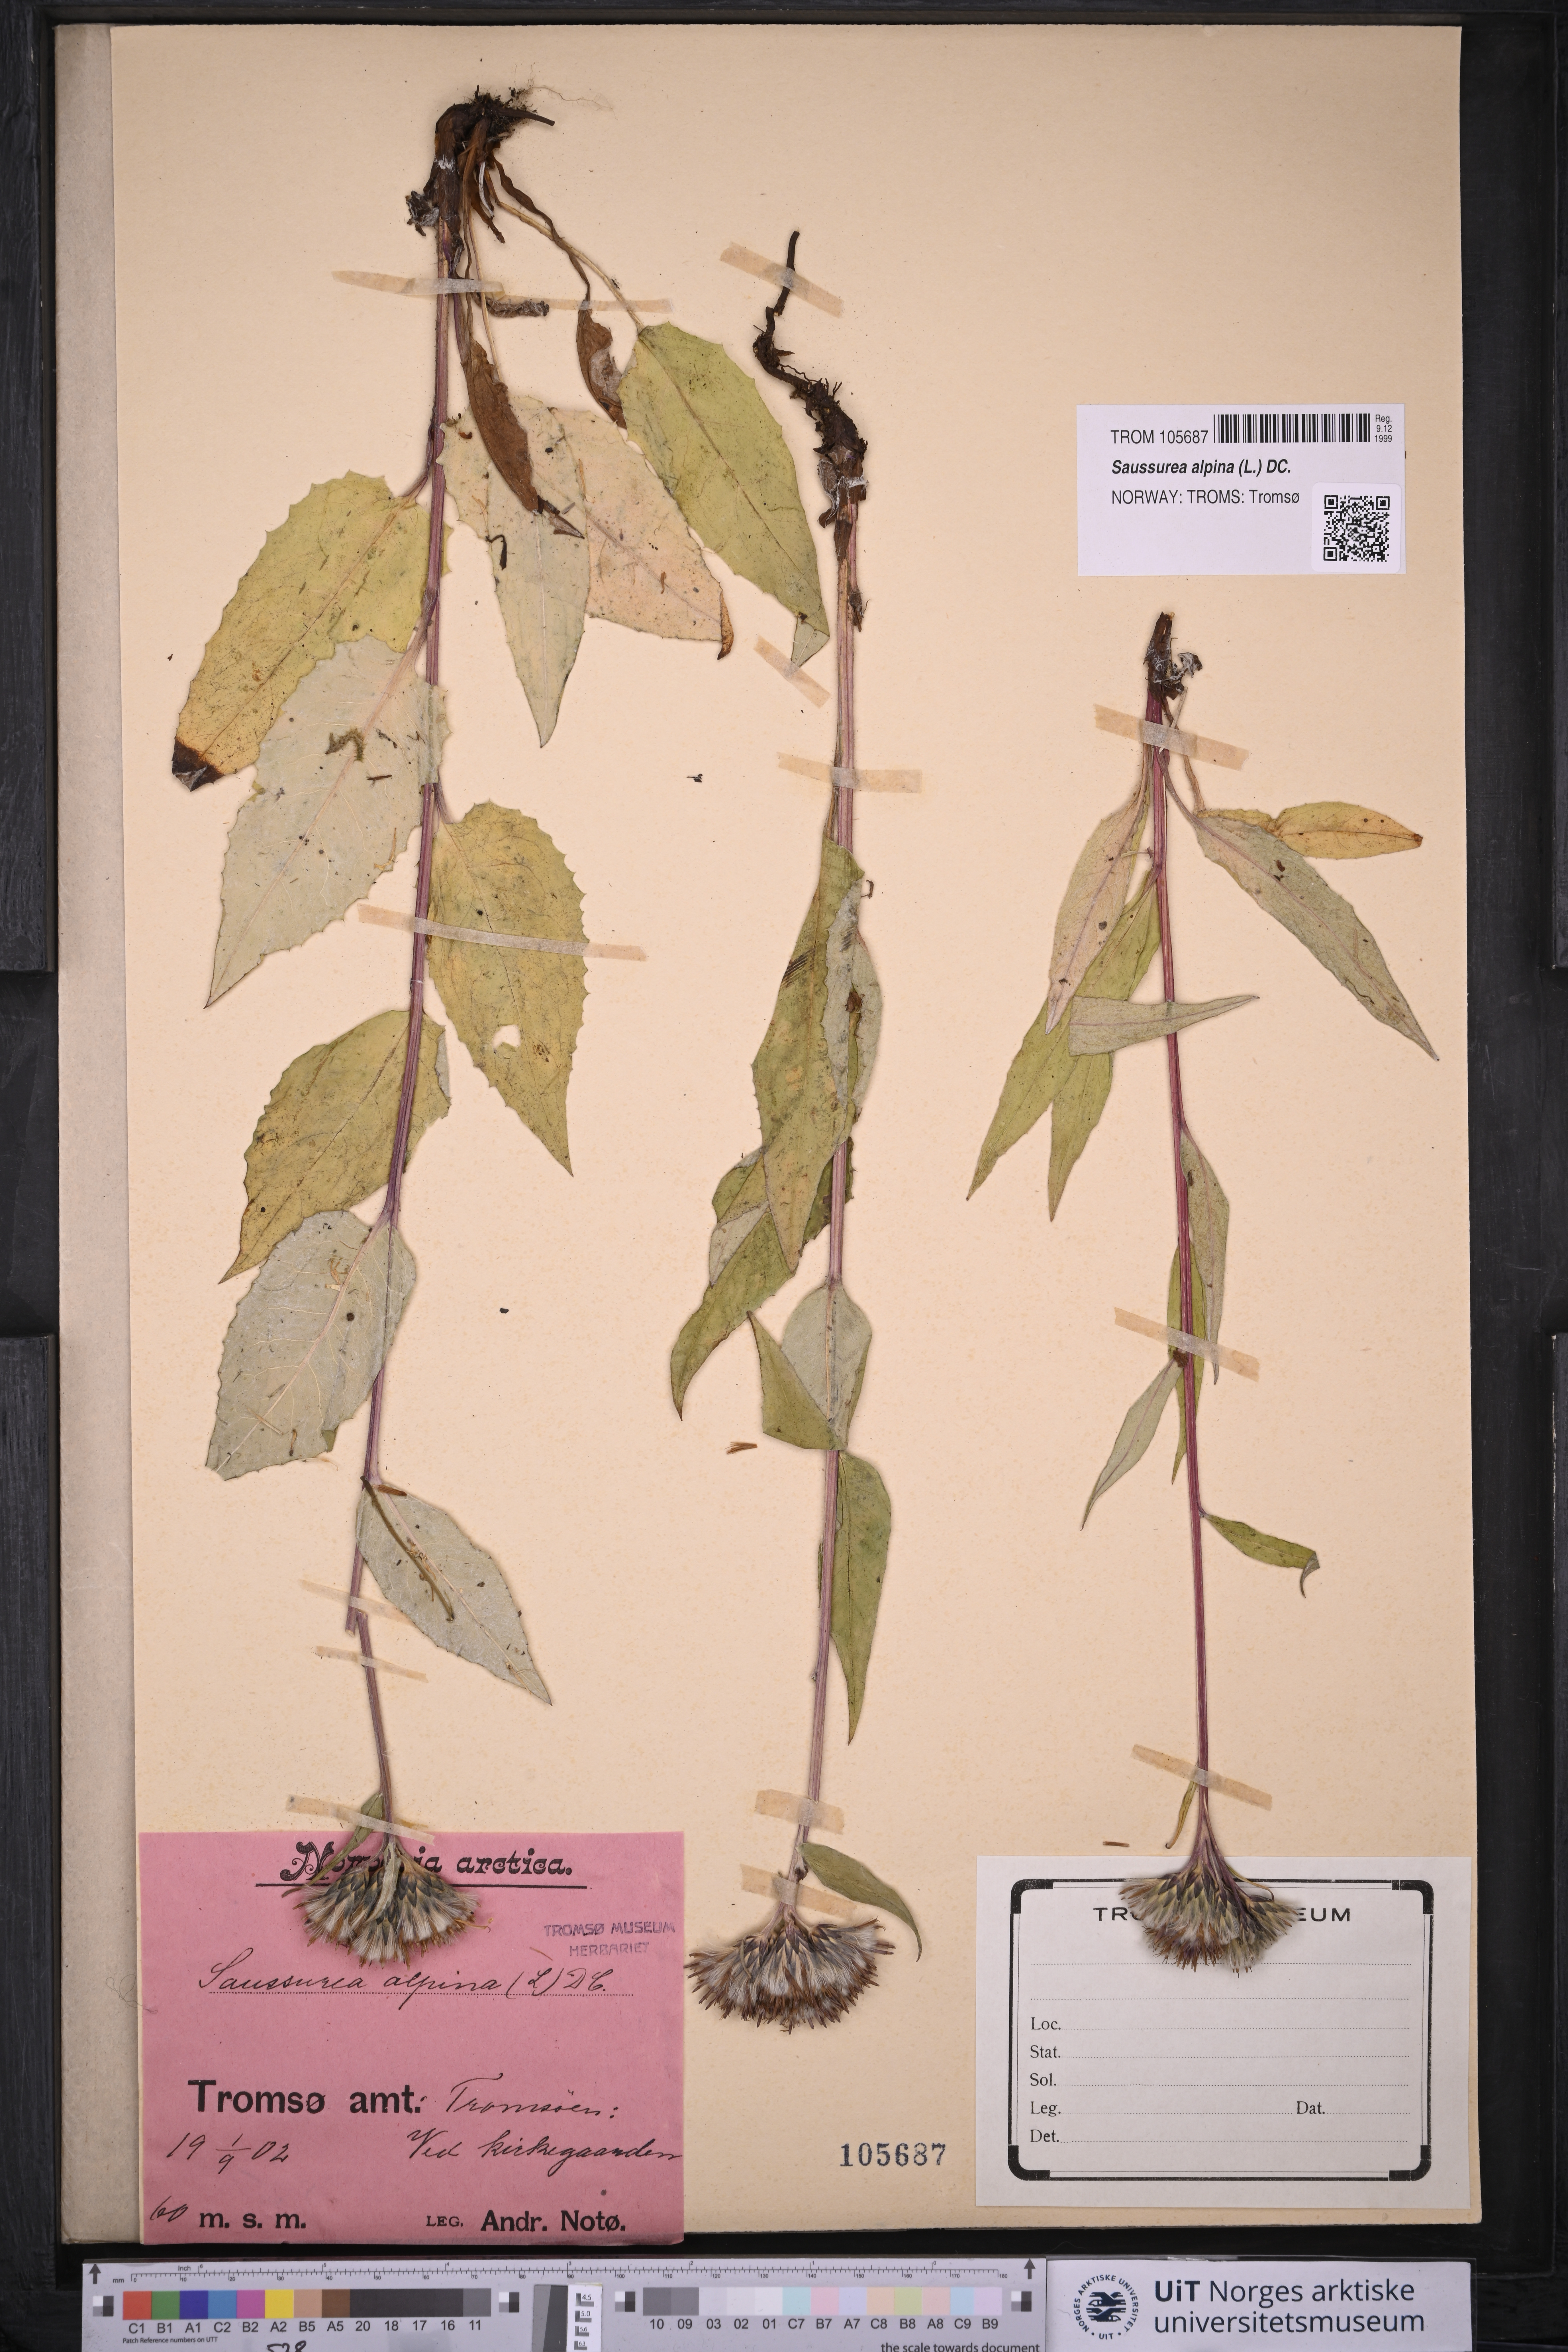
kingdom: Plantae
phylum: Tracheophyta
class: Magnoliopsida
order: Asterales
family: Asteraceae
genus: Saussurea
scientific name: Saussurea alpina
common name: Alpine saw-wort
